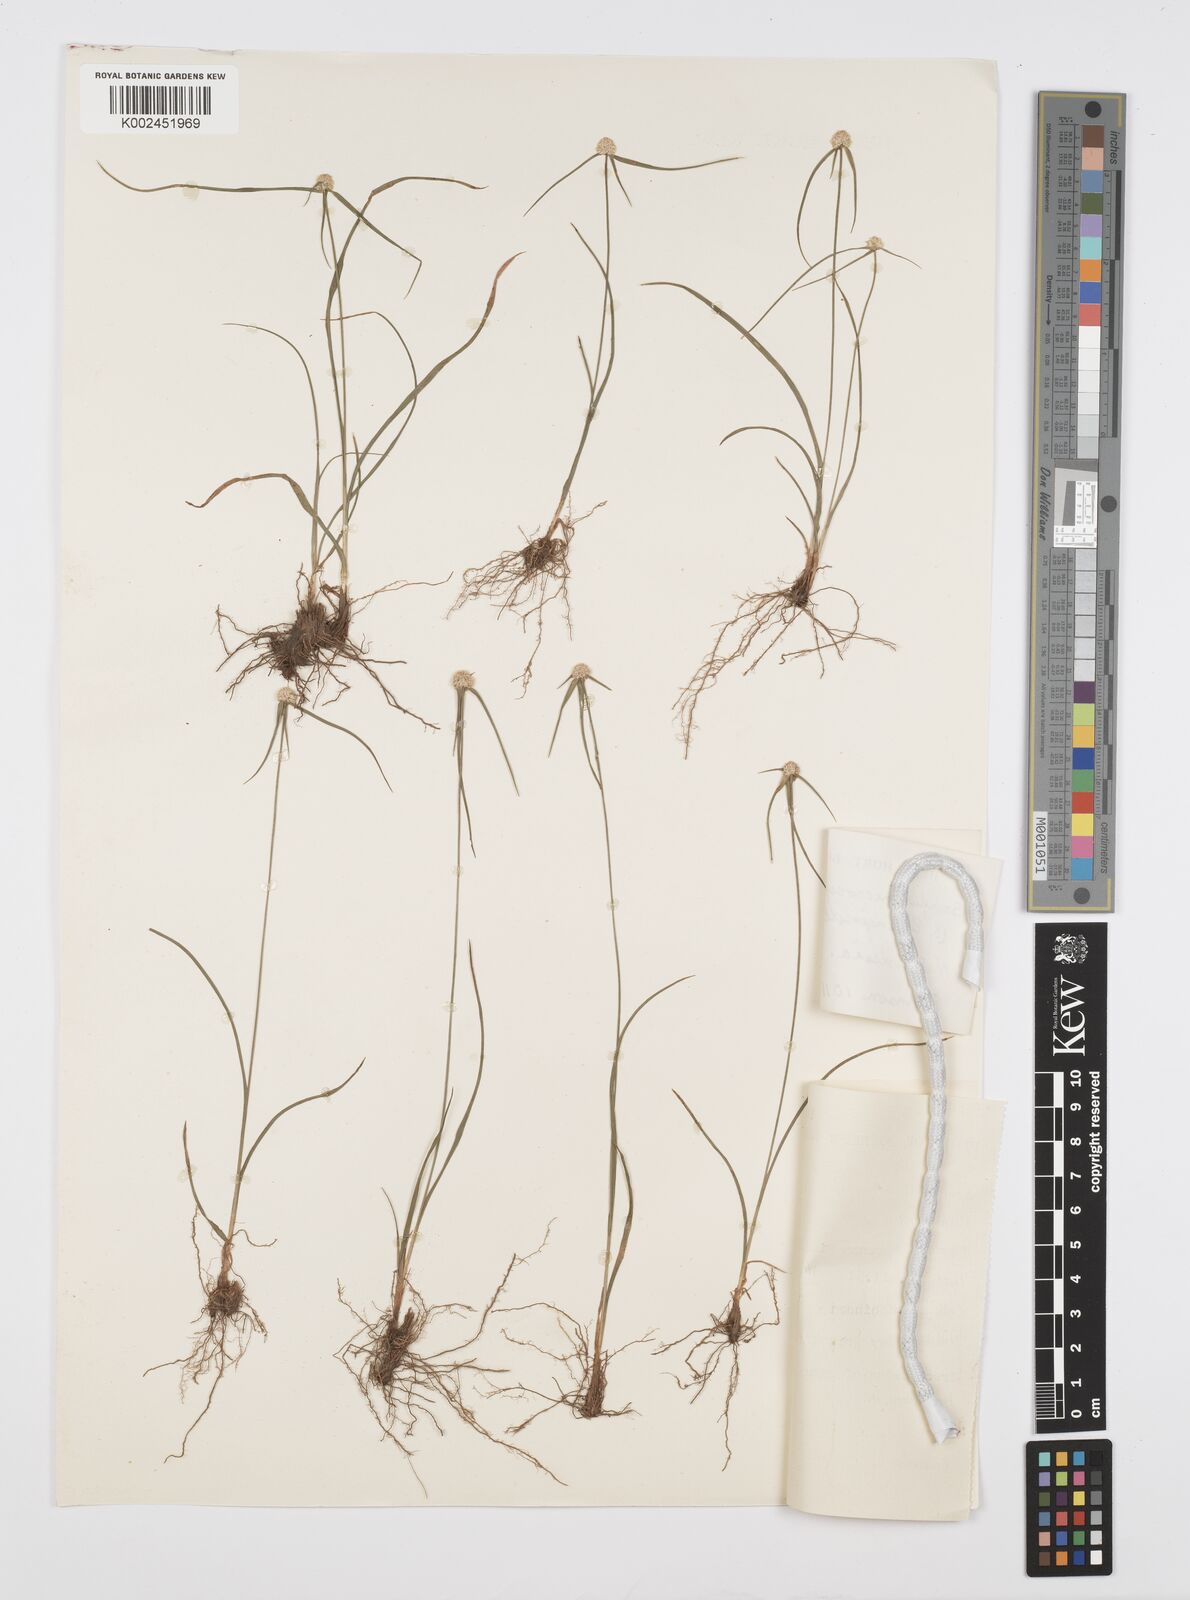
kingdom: Plantae
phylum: Tracheophyta
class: Liliopsida
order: Poales
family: Cyperaceae
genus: Cyperus
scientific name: Cyperus microcephalus
